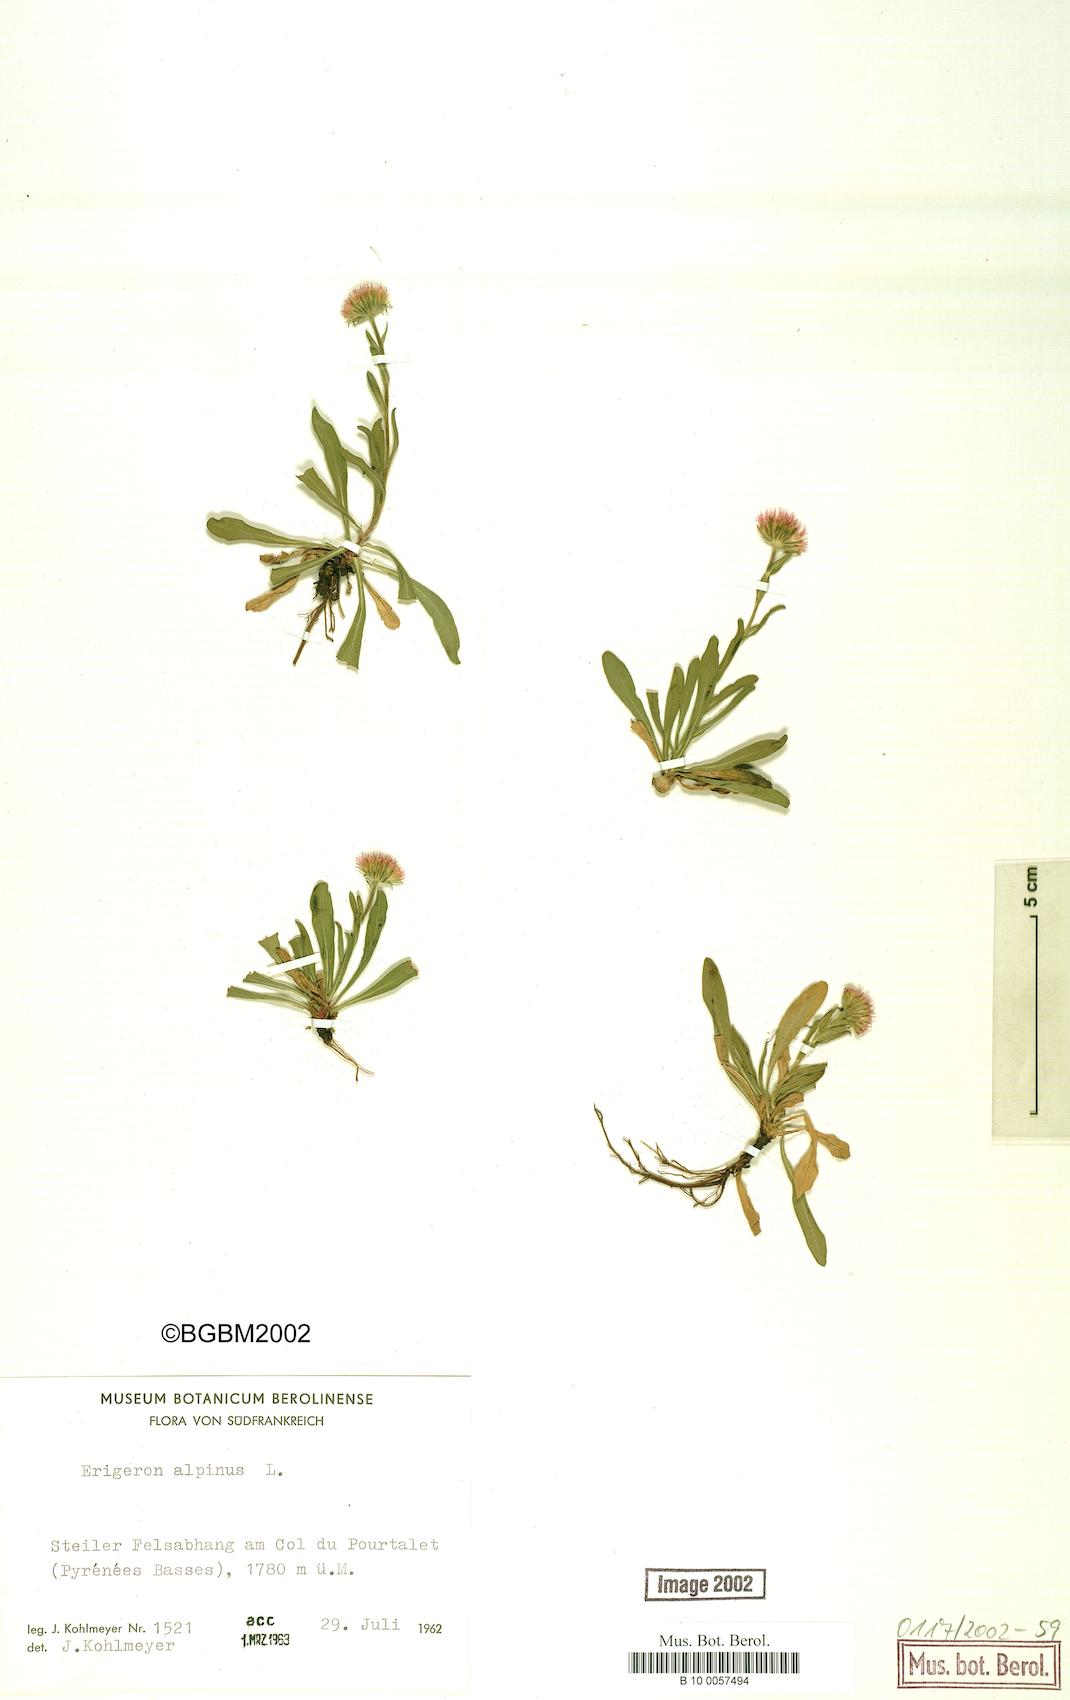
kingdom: Plantae
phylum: Tracheophyta
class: Magnoliopsida
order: Asterales
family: Asteraceae
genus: Erigeron
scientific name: Erigeron alpinus
